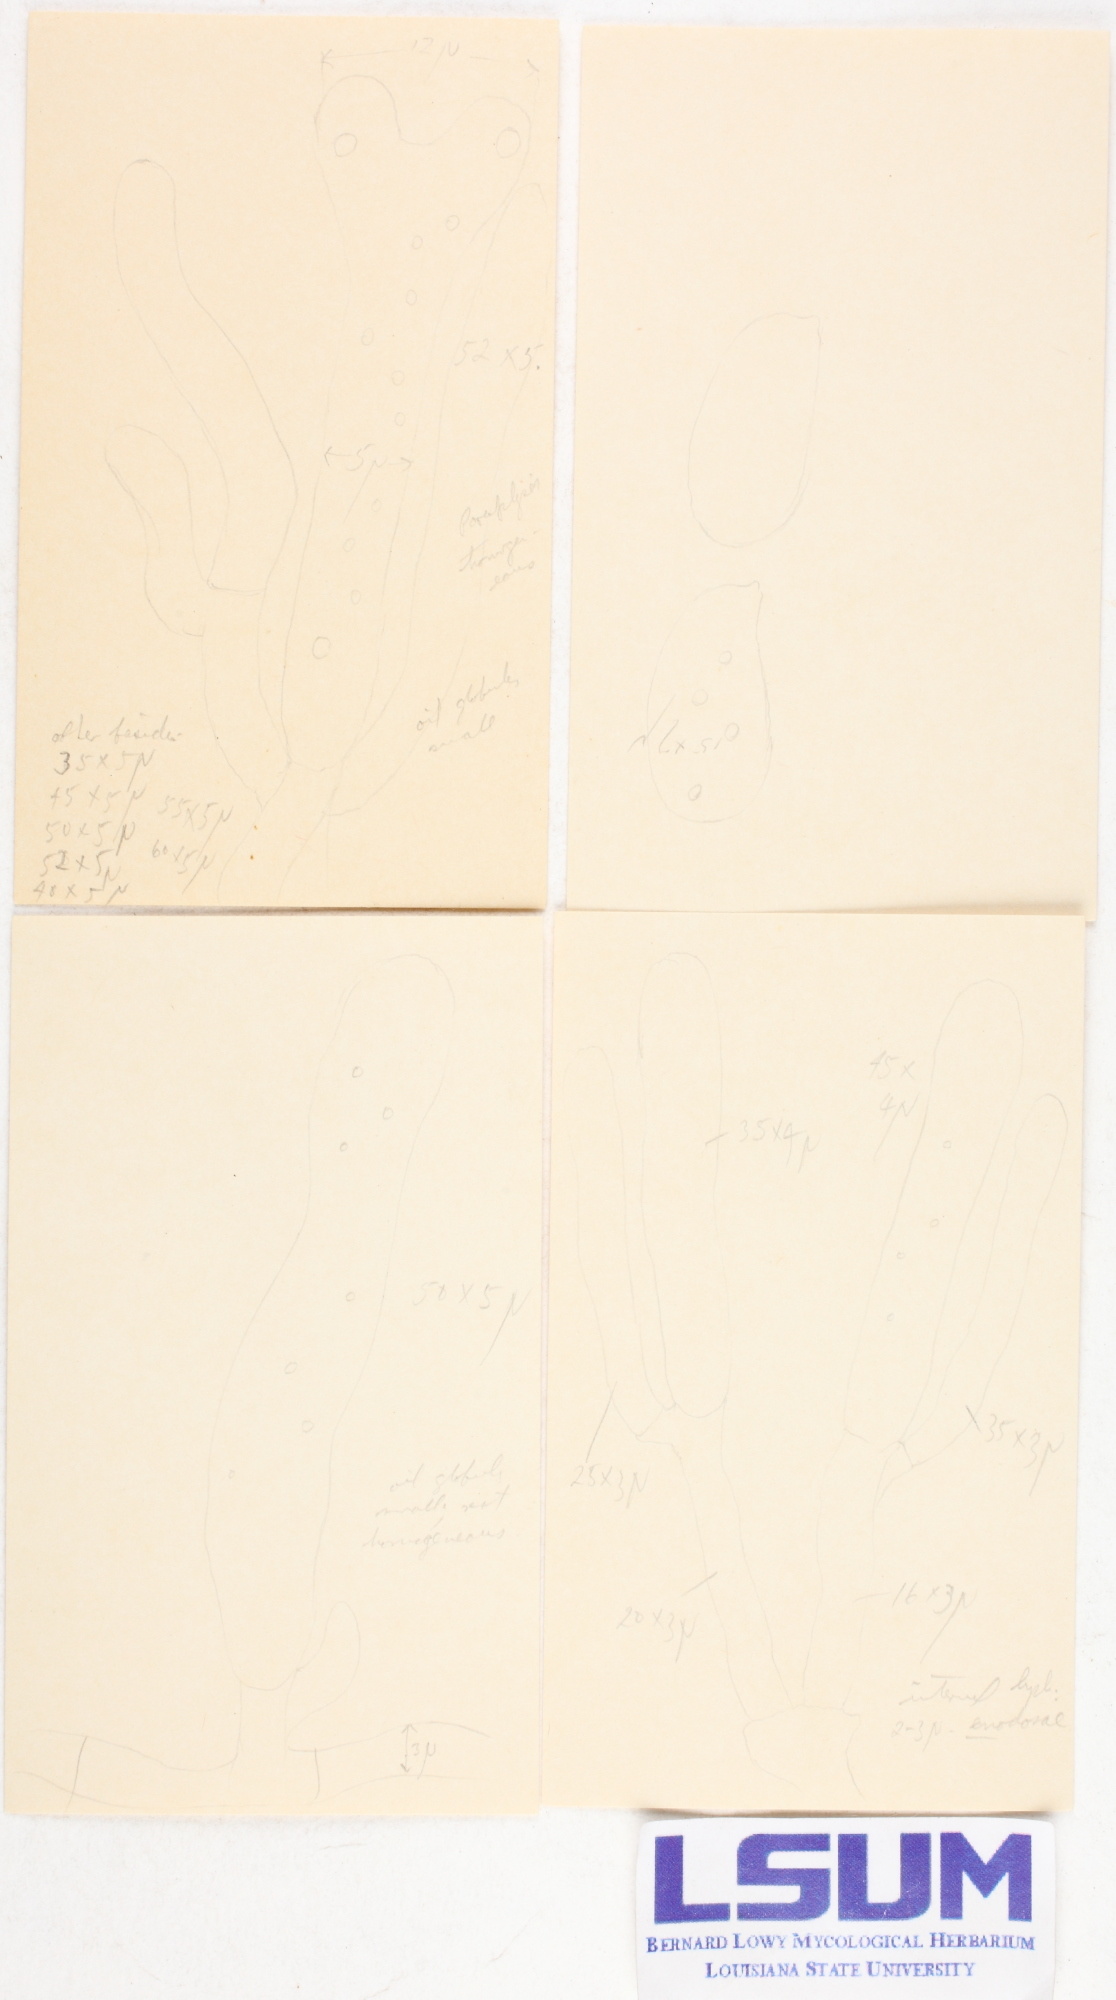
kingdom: Fungi
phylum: Basidiomycota
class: Dacrymycetes
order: Dacrymycetales
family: Dacrymycetaceae
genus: Dacrymyces
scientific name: Dacrymyces capitatus
